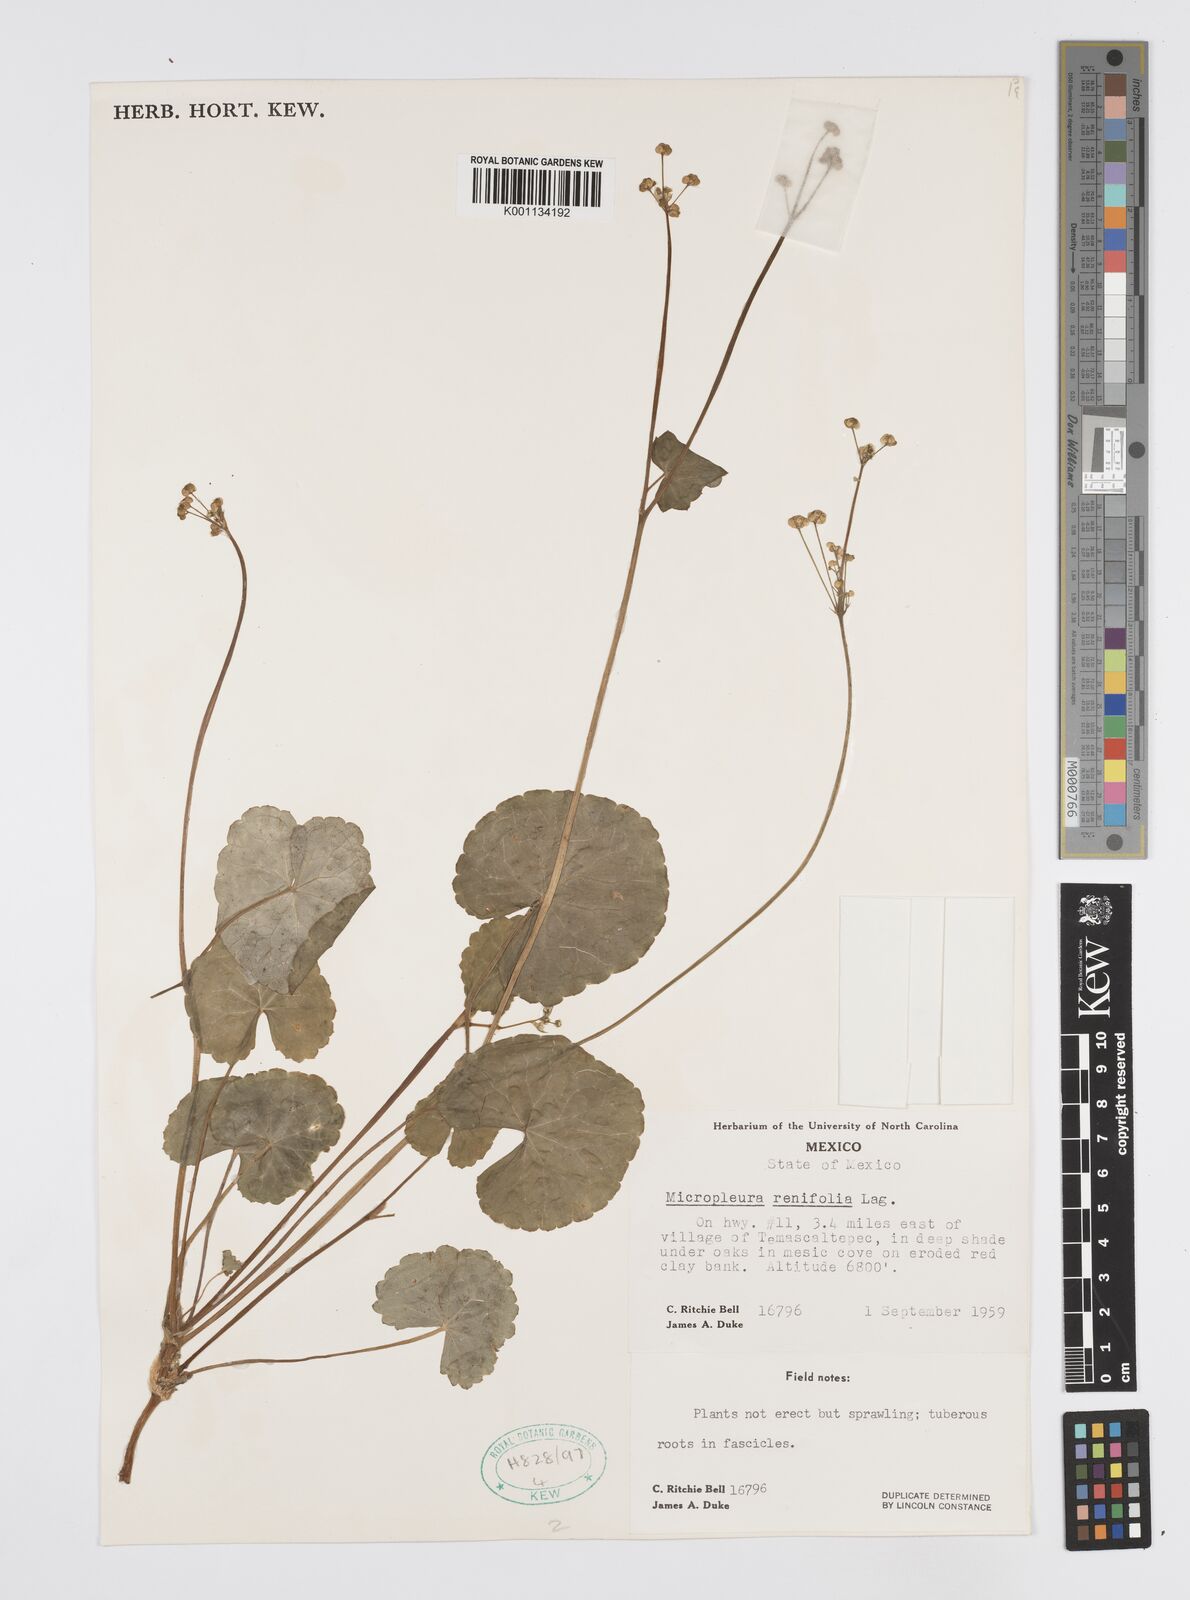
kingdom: Plantae
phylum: Tracheophyta
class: Magnoliopsida
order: Apiales
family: Apiaceae
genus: Micropleura
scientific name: Micropleura renifolia
